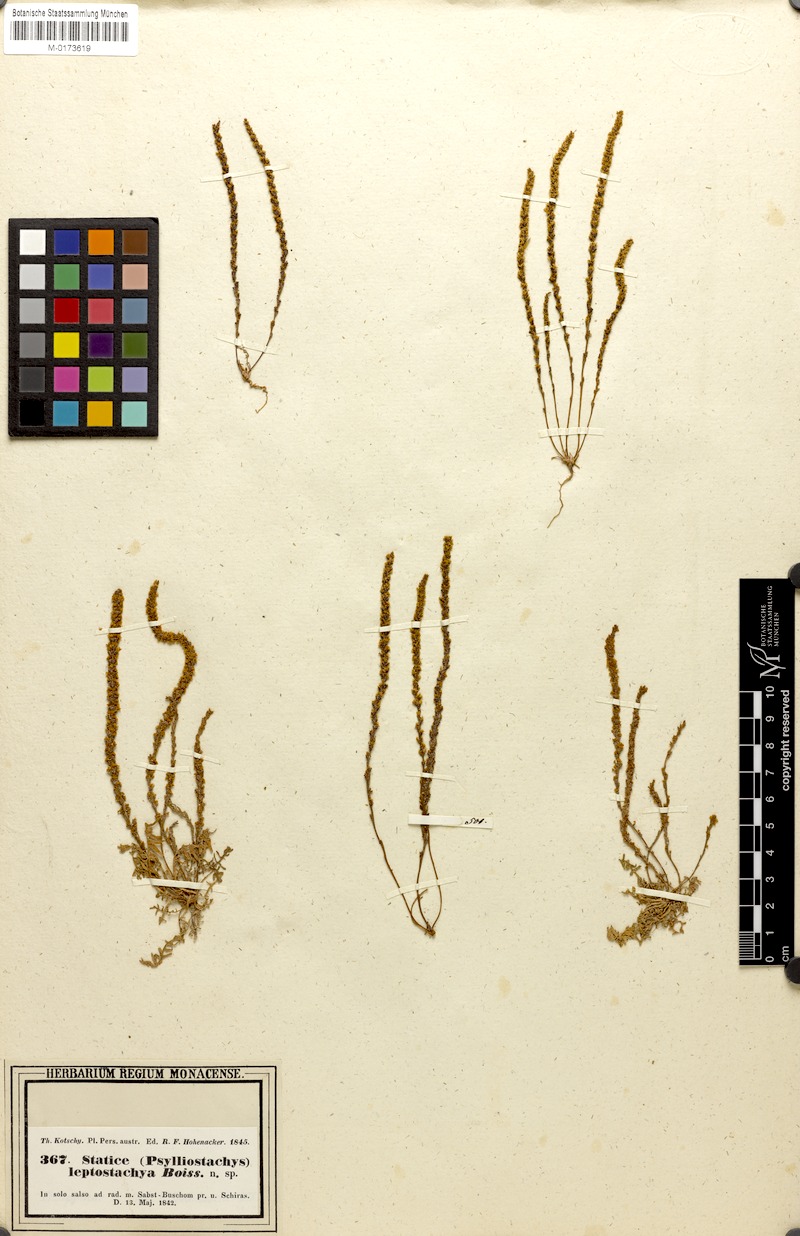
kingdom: Plantae
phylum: Tracheophyta
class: Magnoliopsida
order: Caryophyllales
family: Plumbaginaceae
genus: Psylliostachys
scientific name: Psylliostachys leptostachyus
